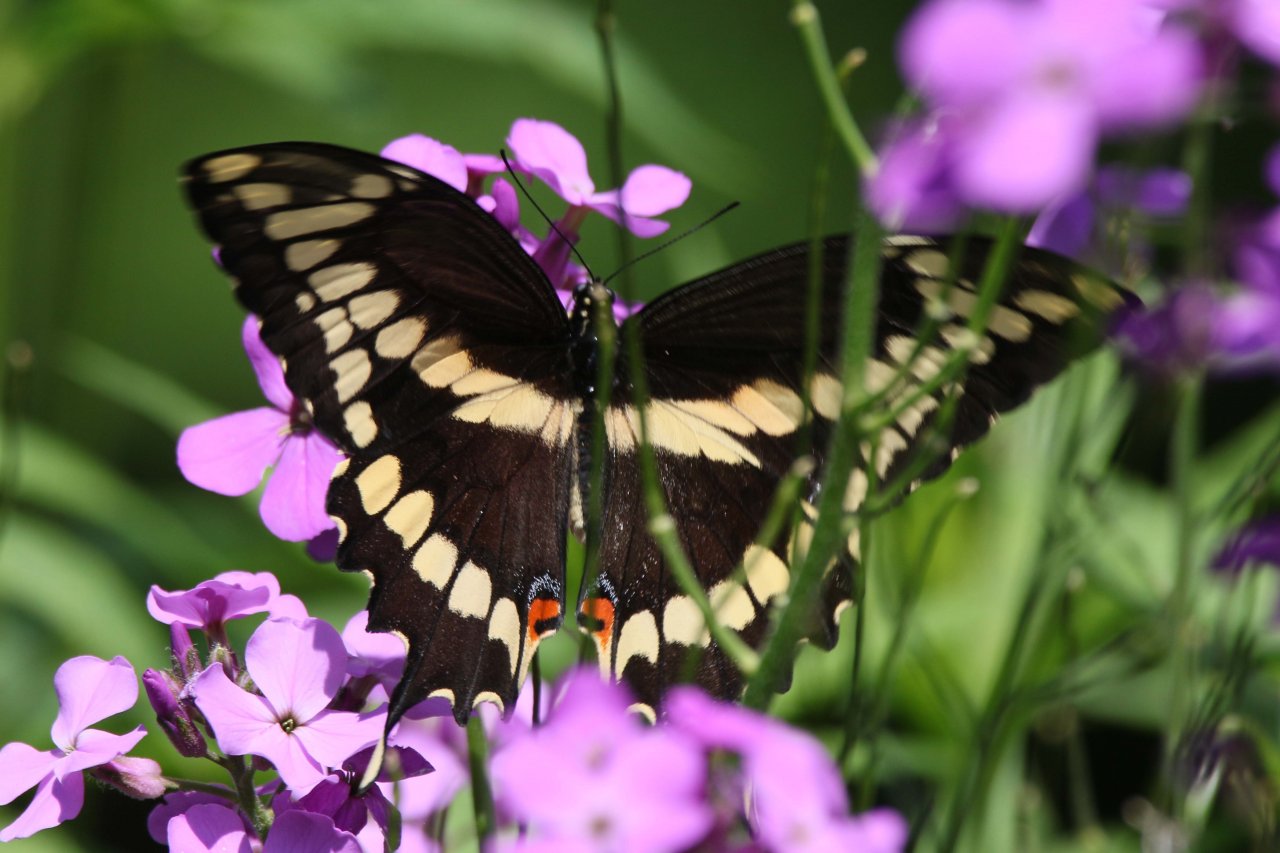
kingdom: Animalia
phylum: Arthropoda
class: Insecta
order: Lepidoptera
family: Papilionidae
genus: Papilio
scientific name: Papilio cresphontes
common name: Eastern Giant Swallowtail
